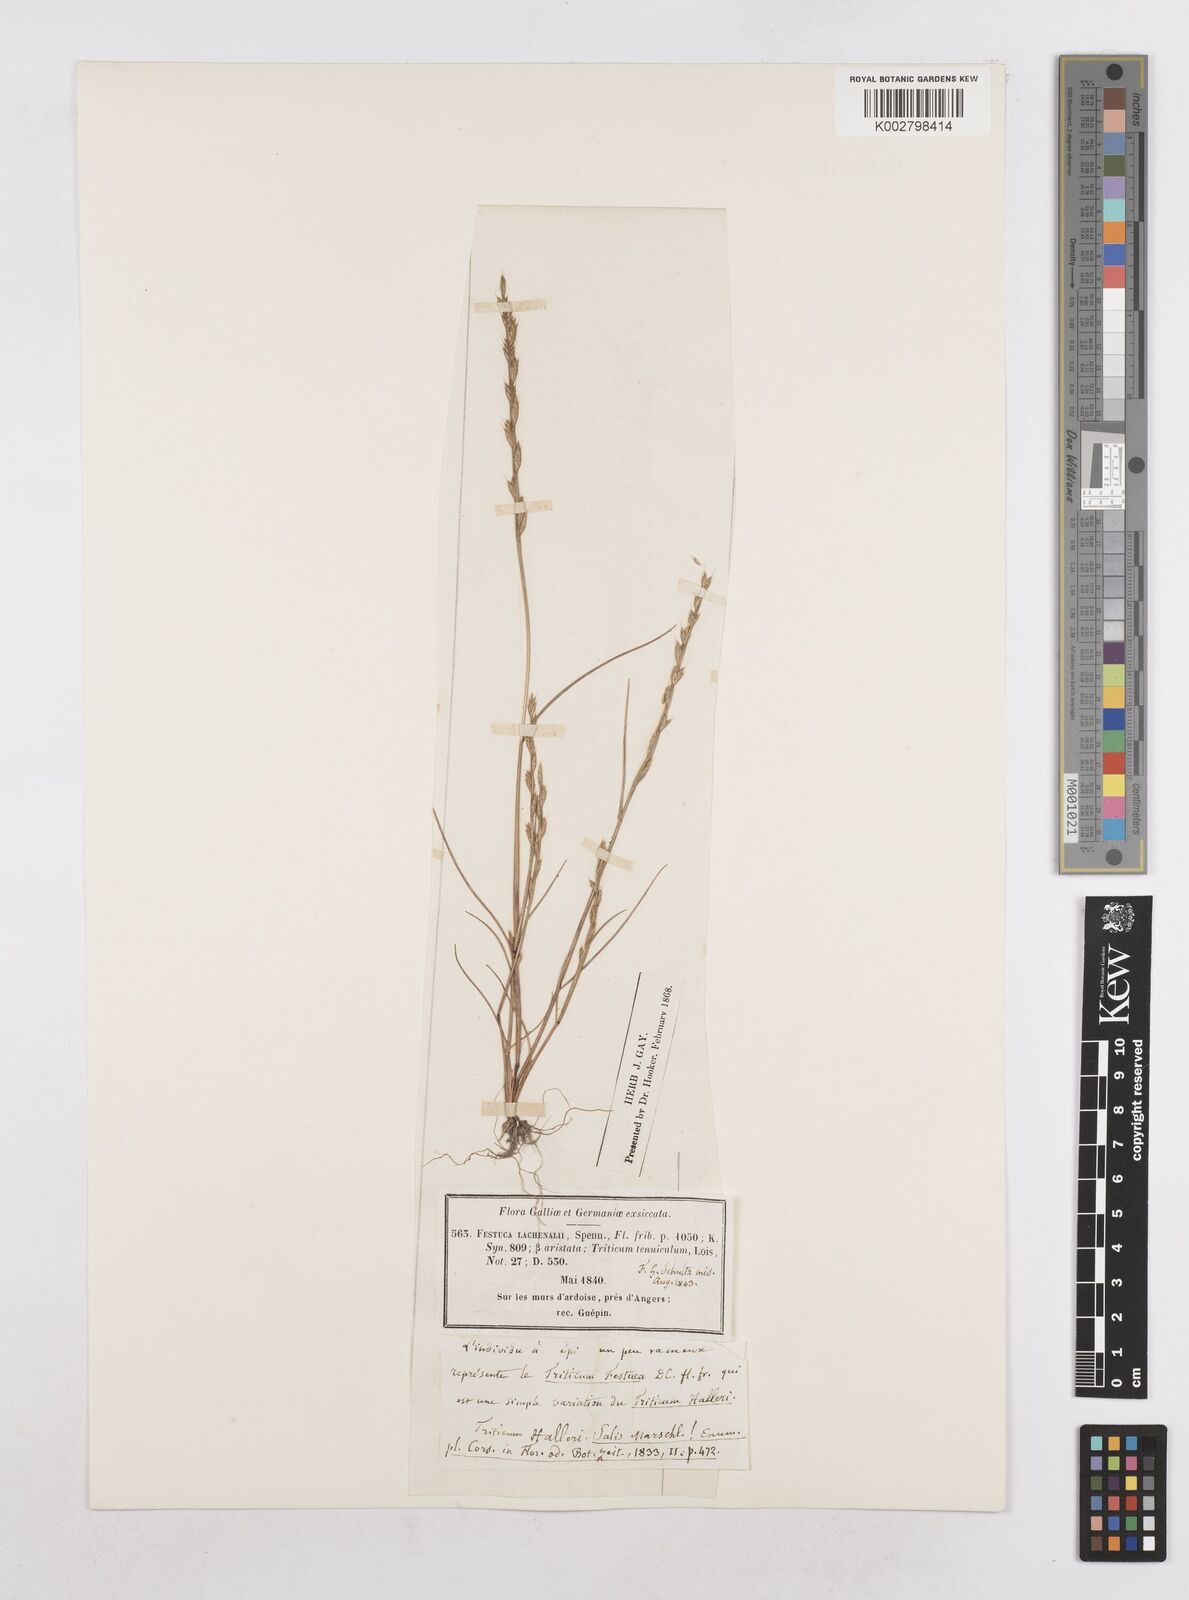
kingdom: Plantae
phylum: Tracheophyta
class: Liliopsida
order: Poales
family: Poaceae
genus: Festuca
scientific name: Festuca lachenalii
